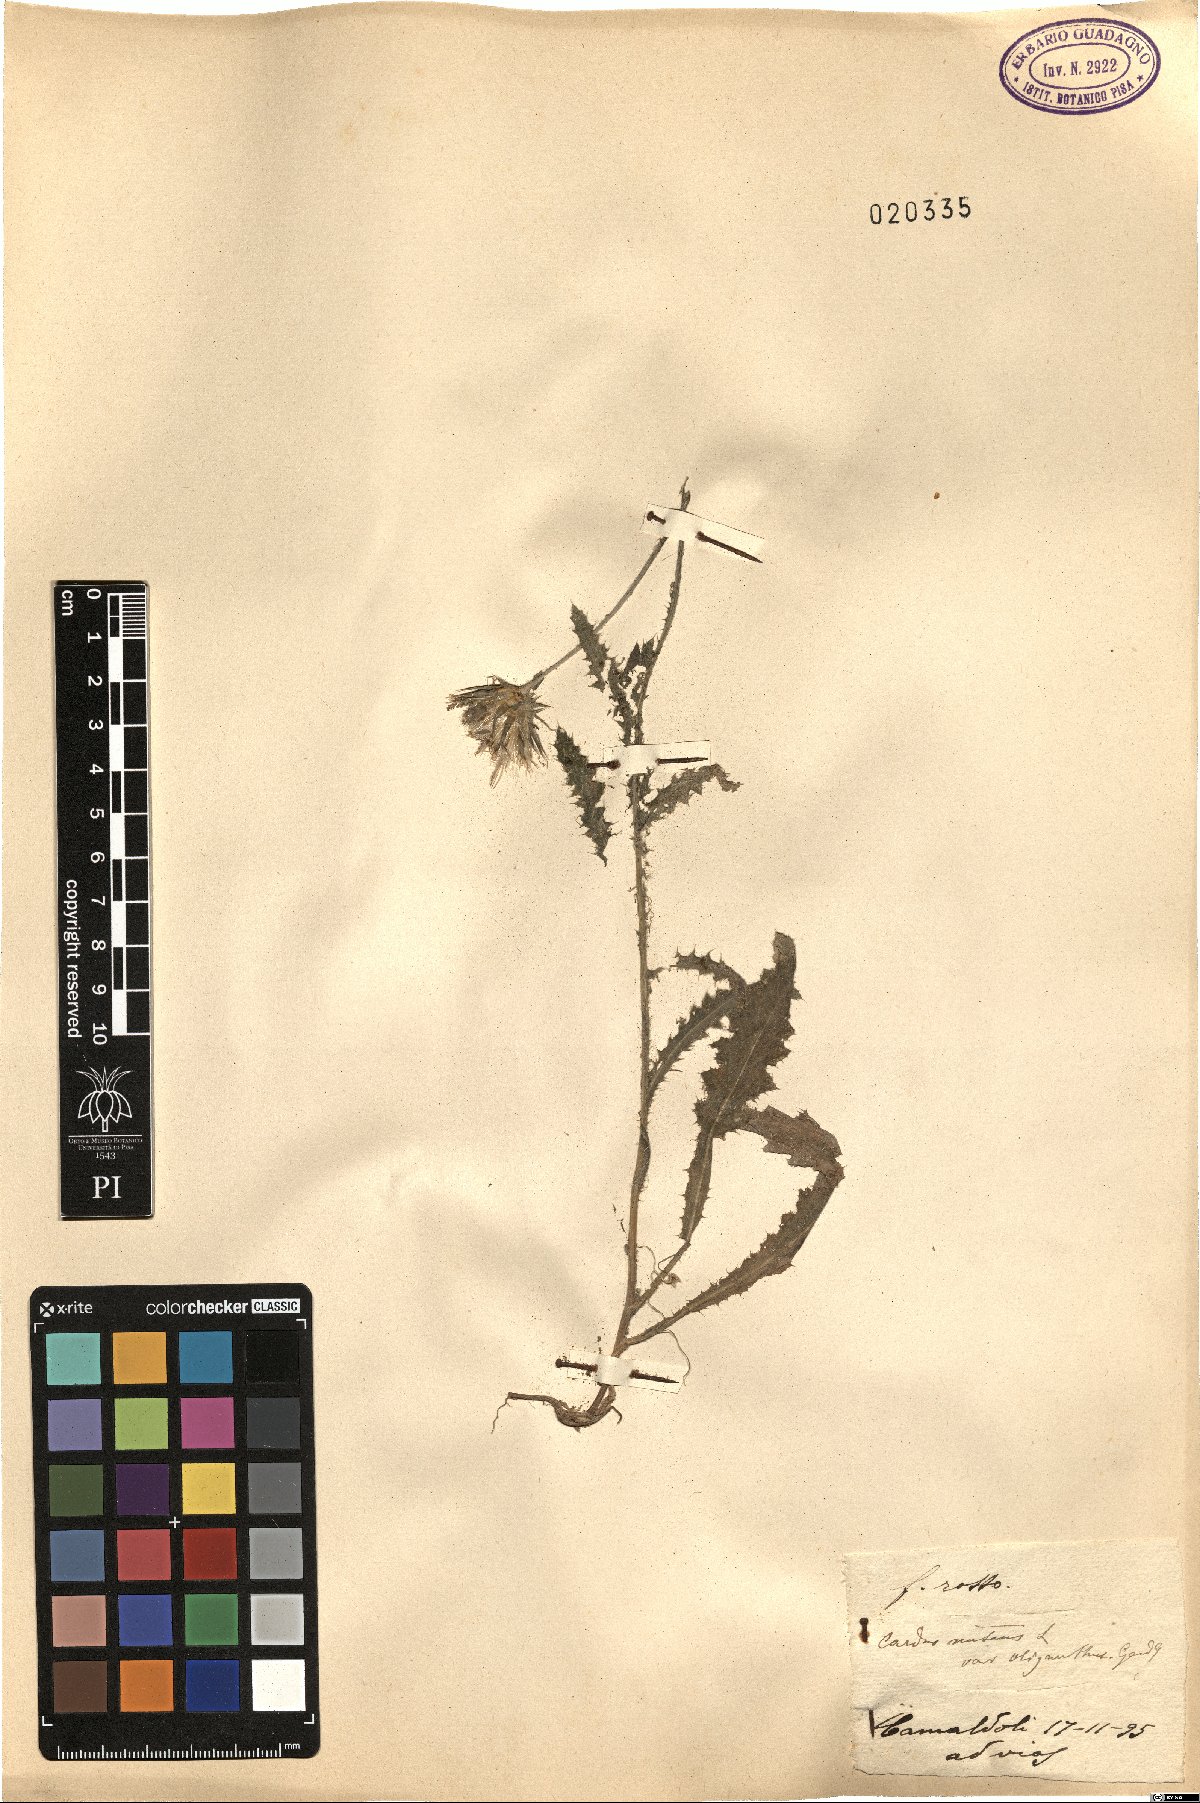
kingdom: Plantae
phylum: Tracheophyta
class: Magnoliopsida
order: Asterales
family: Asteraceae
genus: Carduus
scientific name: Carduus nutans
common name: Musk thistle
